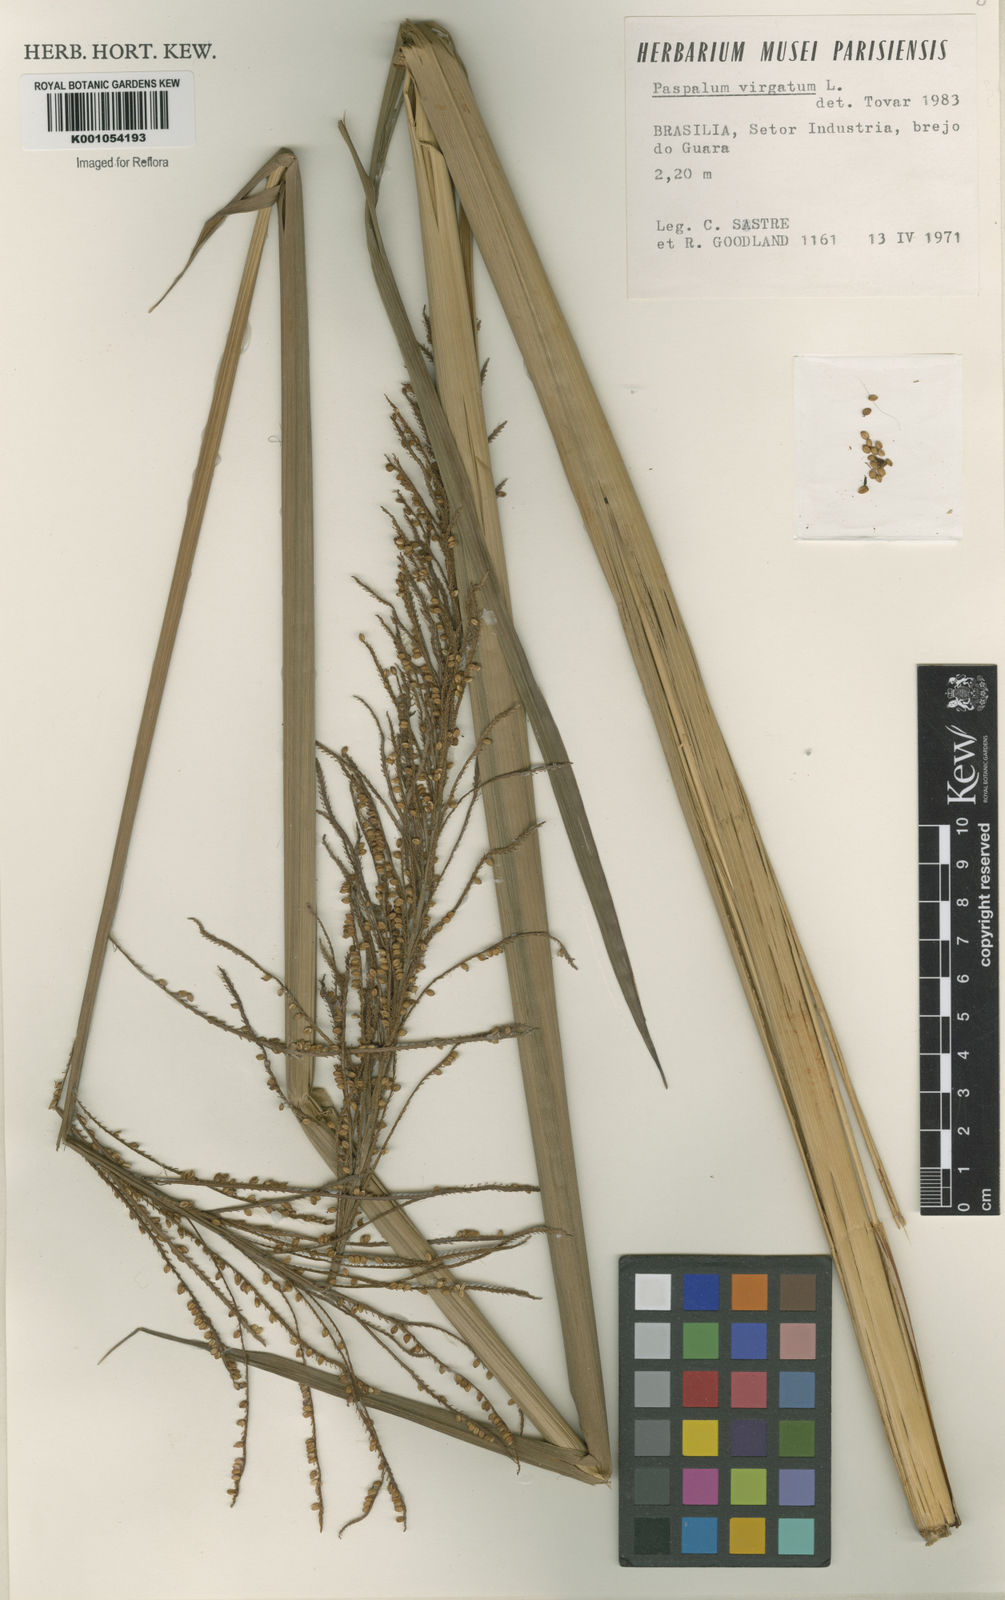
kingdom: Plantae
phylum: Tracheophyta
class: Liliopsida
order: Poales
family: Poaceae
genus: Paspalum
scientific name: Paspalum virgatum
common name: Talquezal
